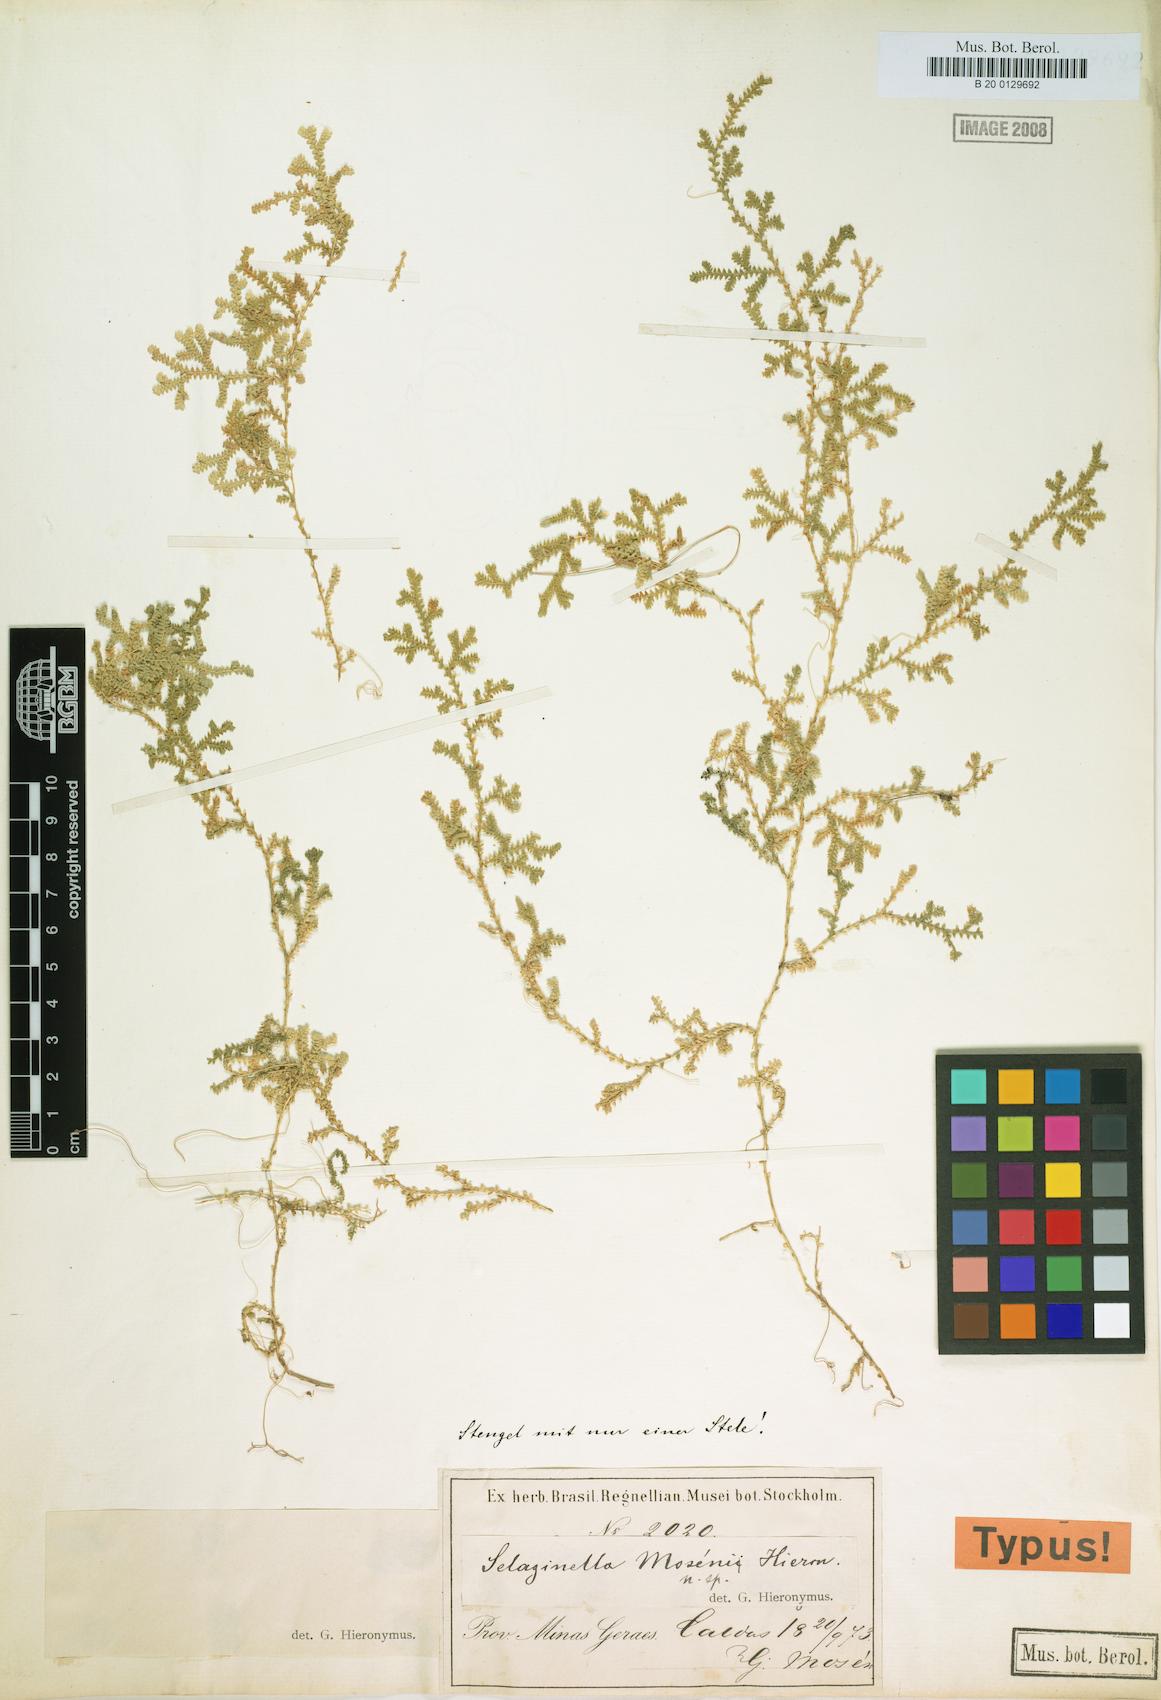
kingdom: Plantae
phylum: Tracheophyta
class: Lycopodiopsida
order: Selaginellales
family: Selaginellaceae
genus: Selaginella
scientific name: Selaginella marginata
